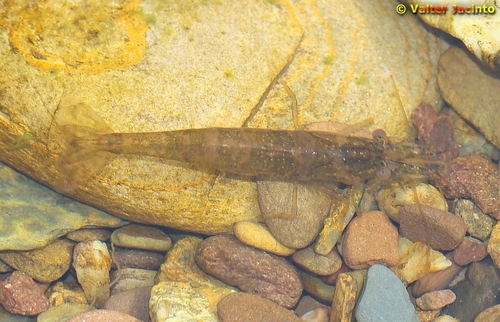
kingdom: Animalia
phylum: Arthropoda
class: Malacostraca
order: Decapoda
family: Atyidae
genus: Atyaephyra
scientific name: Atyaephyra desmarestii
